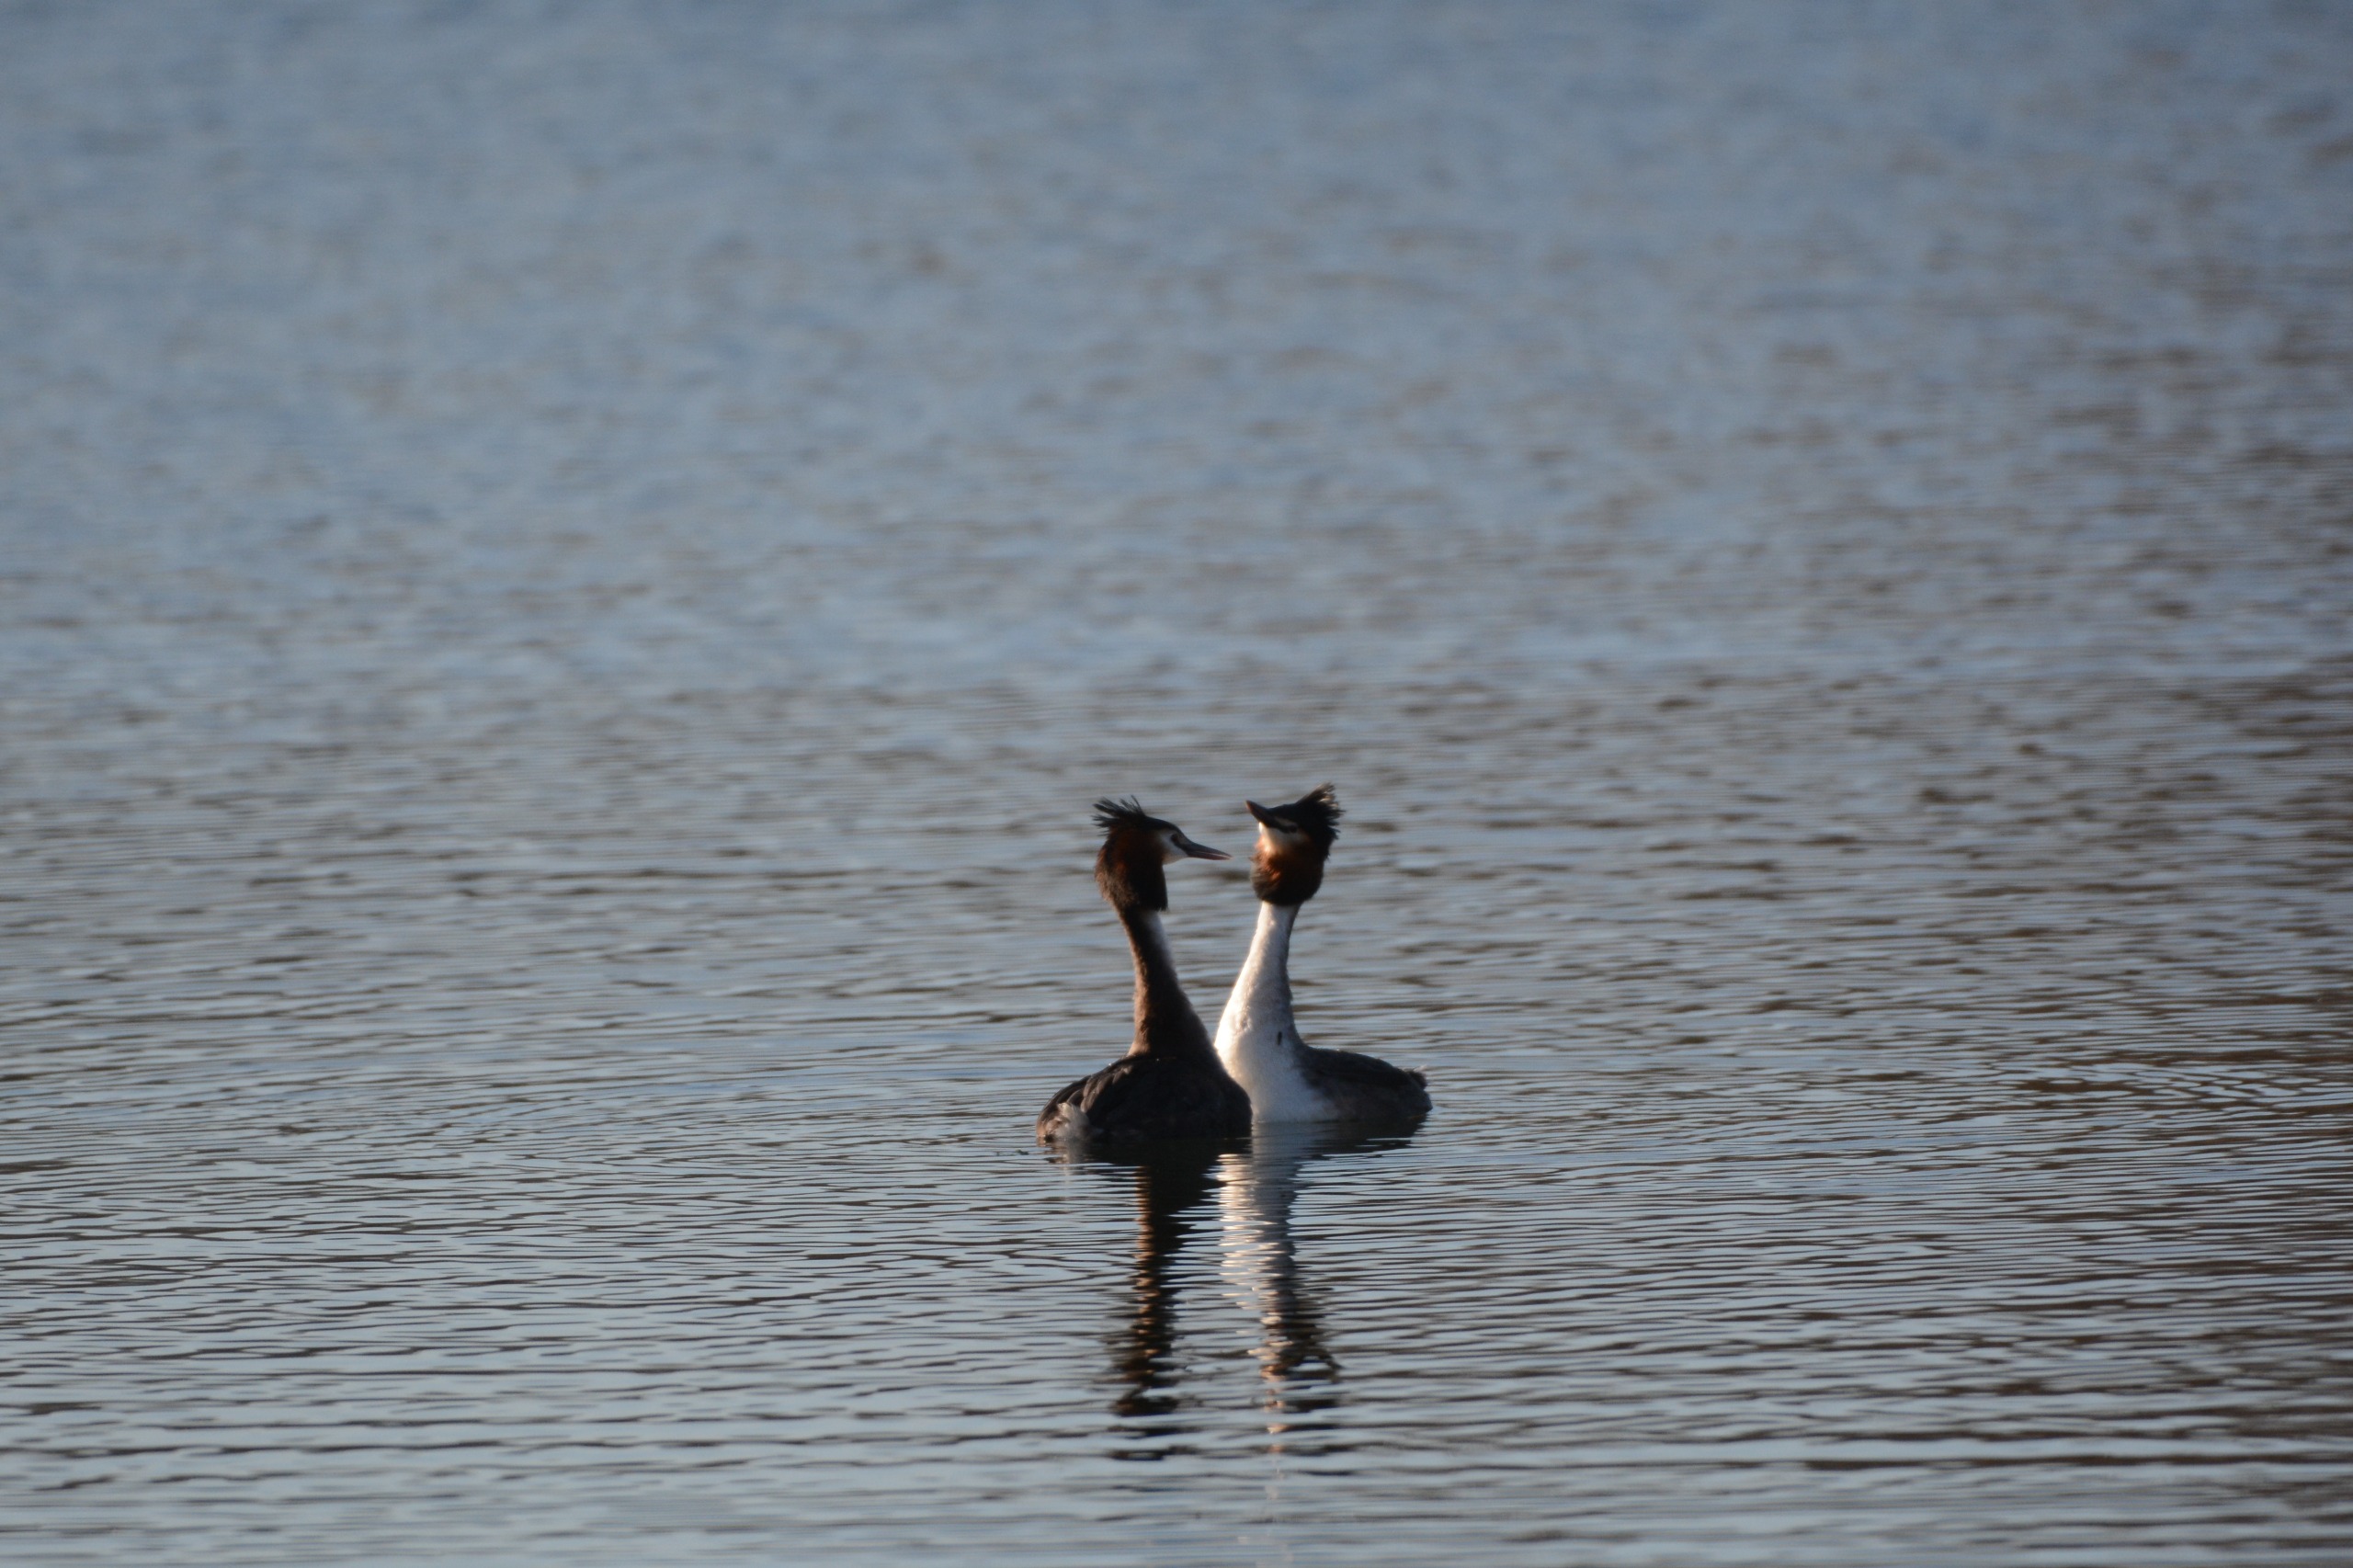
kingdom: Animalia
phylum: Chordata
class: Aves
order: Podicipediformes
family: Podicipedidae
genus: Podiceps
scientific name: Podiceps cristatus
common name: Toppet lappedykker
